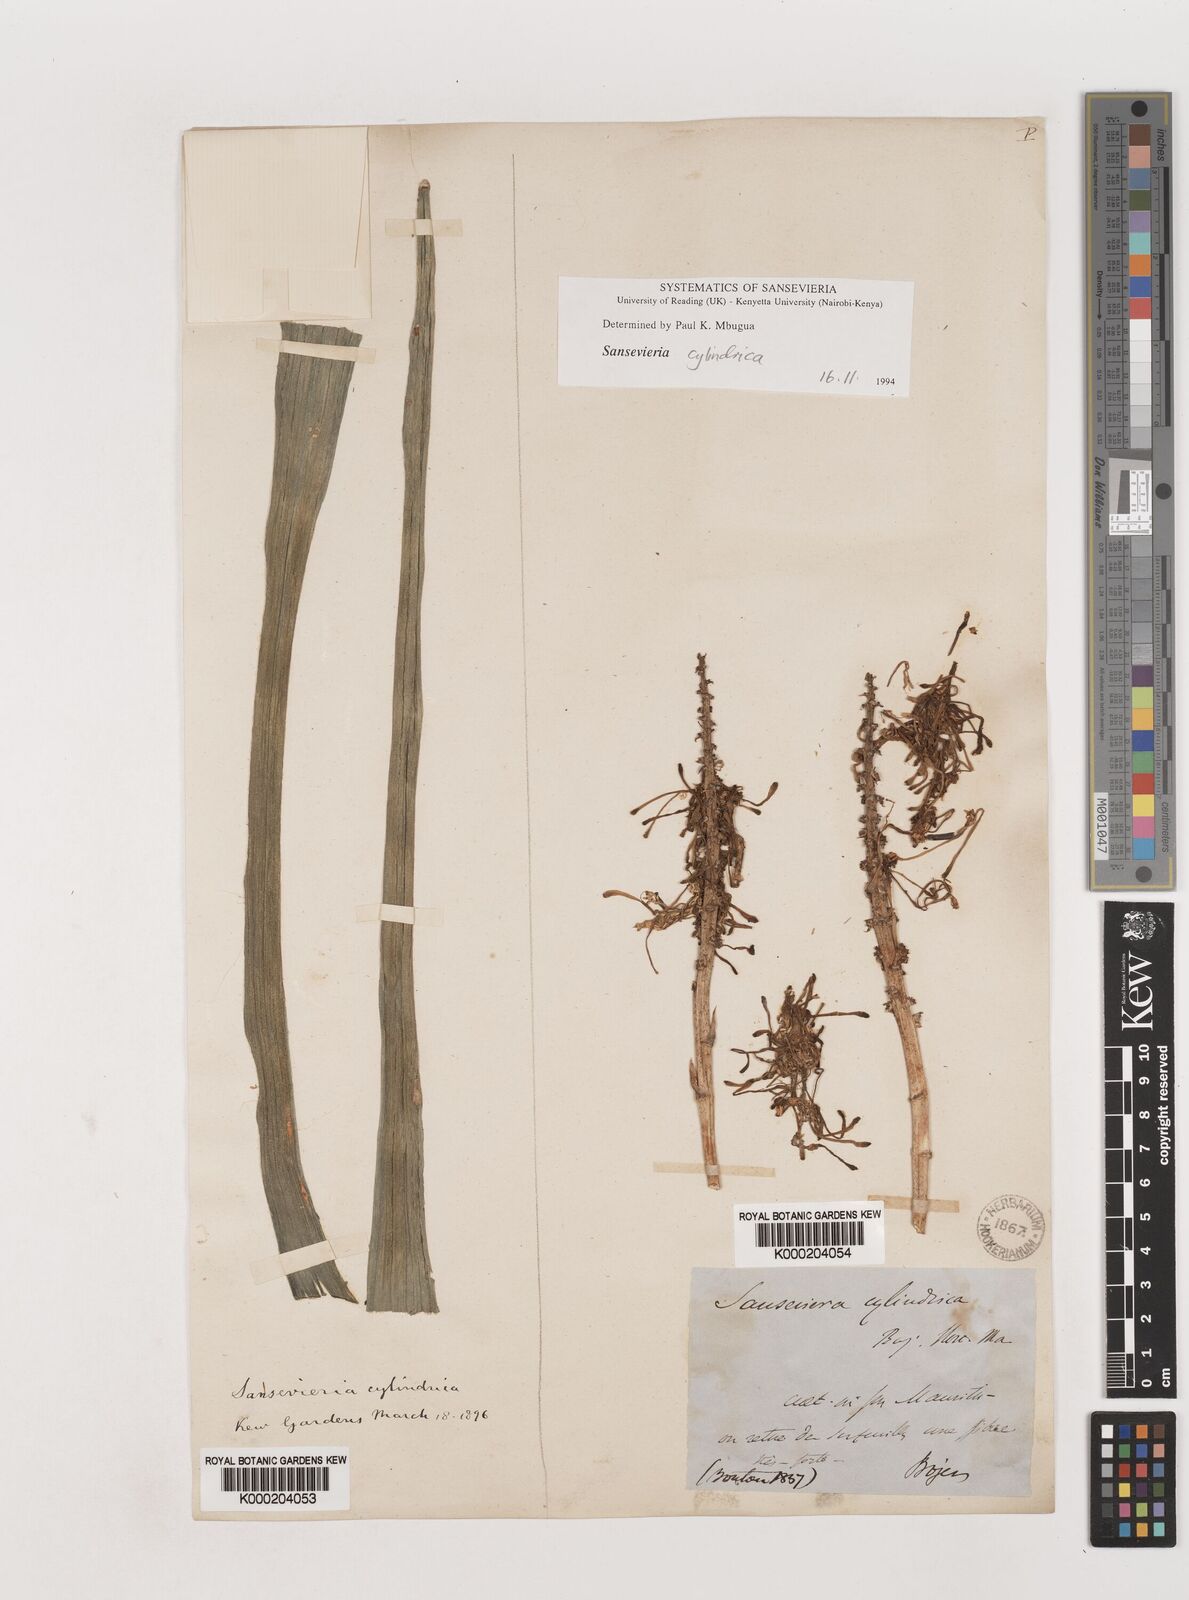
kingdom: Plantae
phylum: Tracheophyta
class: Liliopsida
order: Asparagales
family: Asparagaceae
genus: Dracaena
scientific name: Dracaena angolensis
